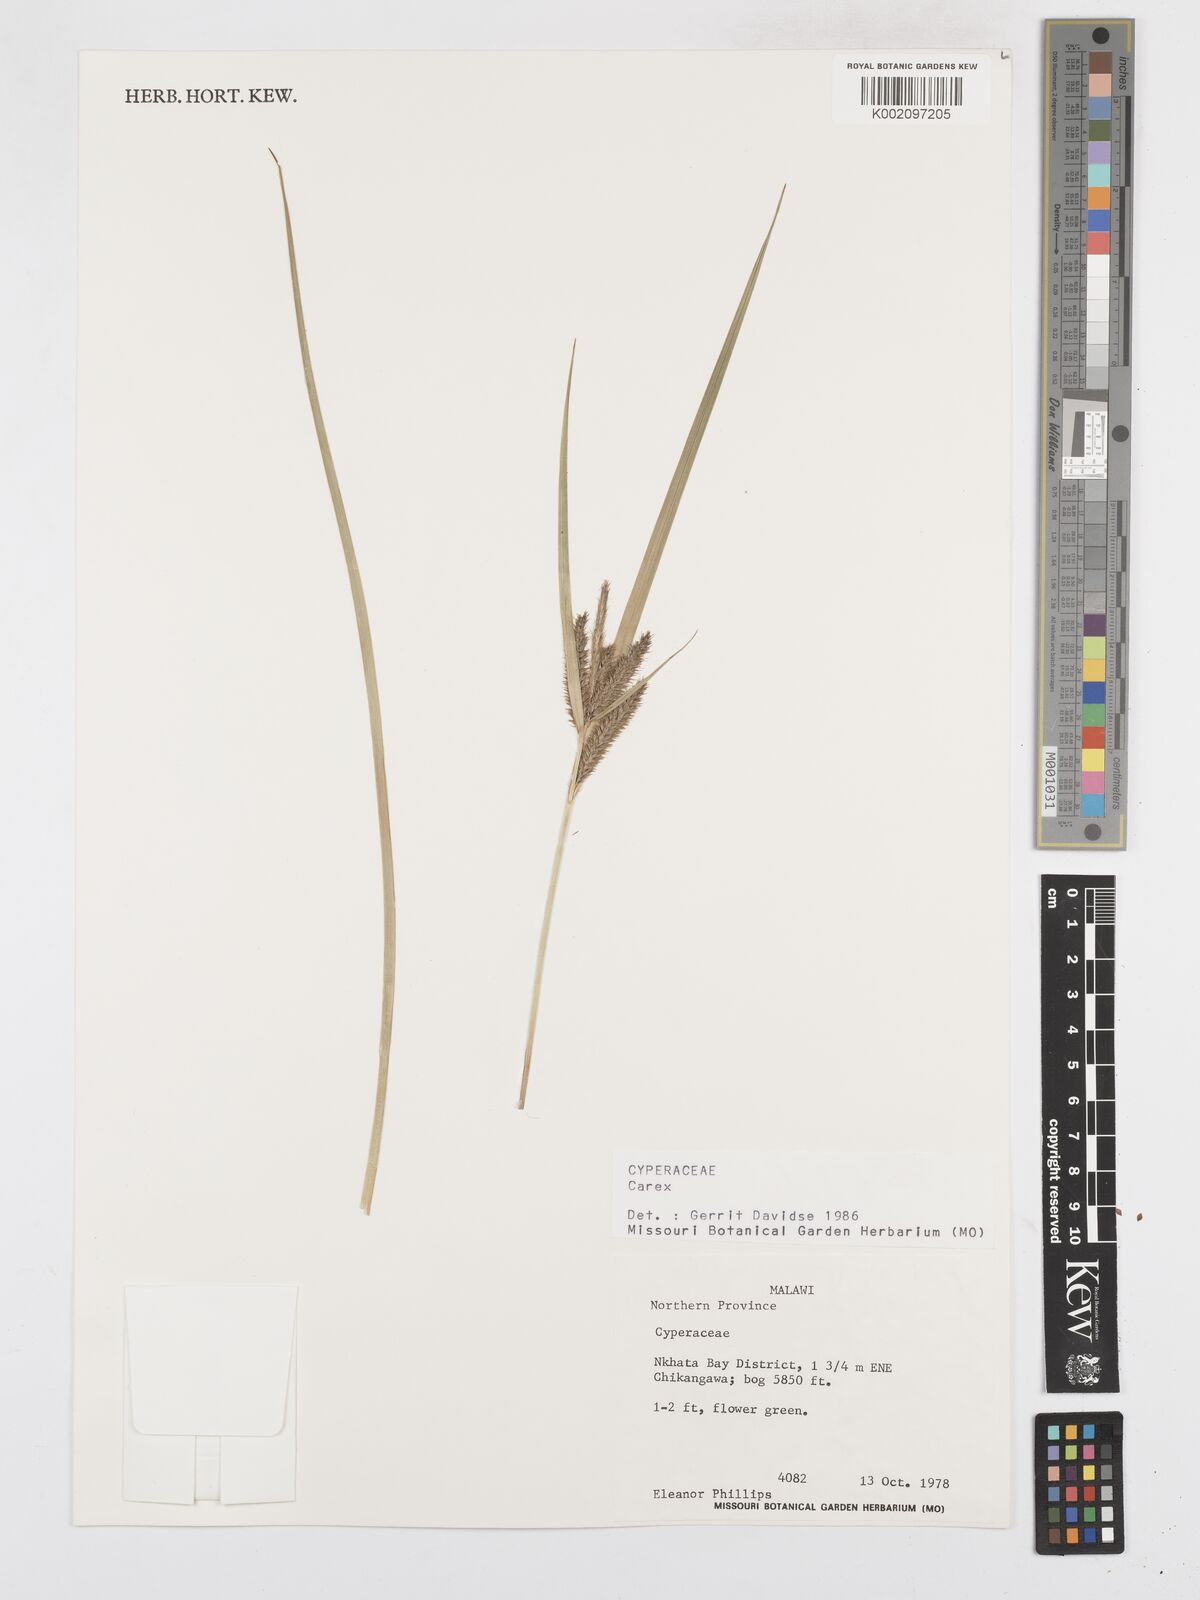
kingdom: Plantae
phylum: Tracheophyta
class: Liliopsida
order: Poales
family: Cyperaceae
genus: Carex
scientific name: Carex
